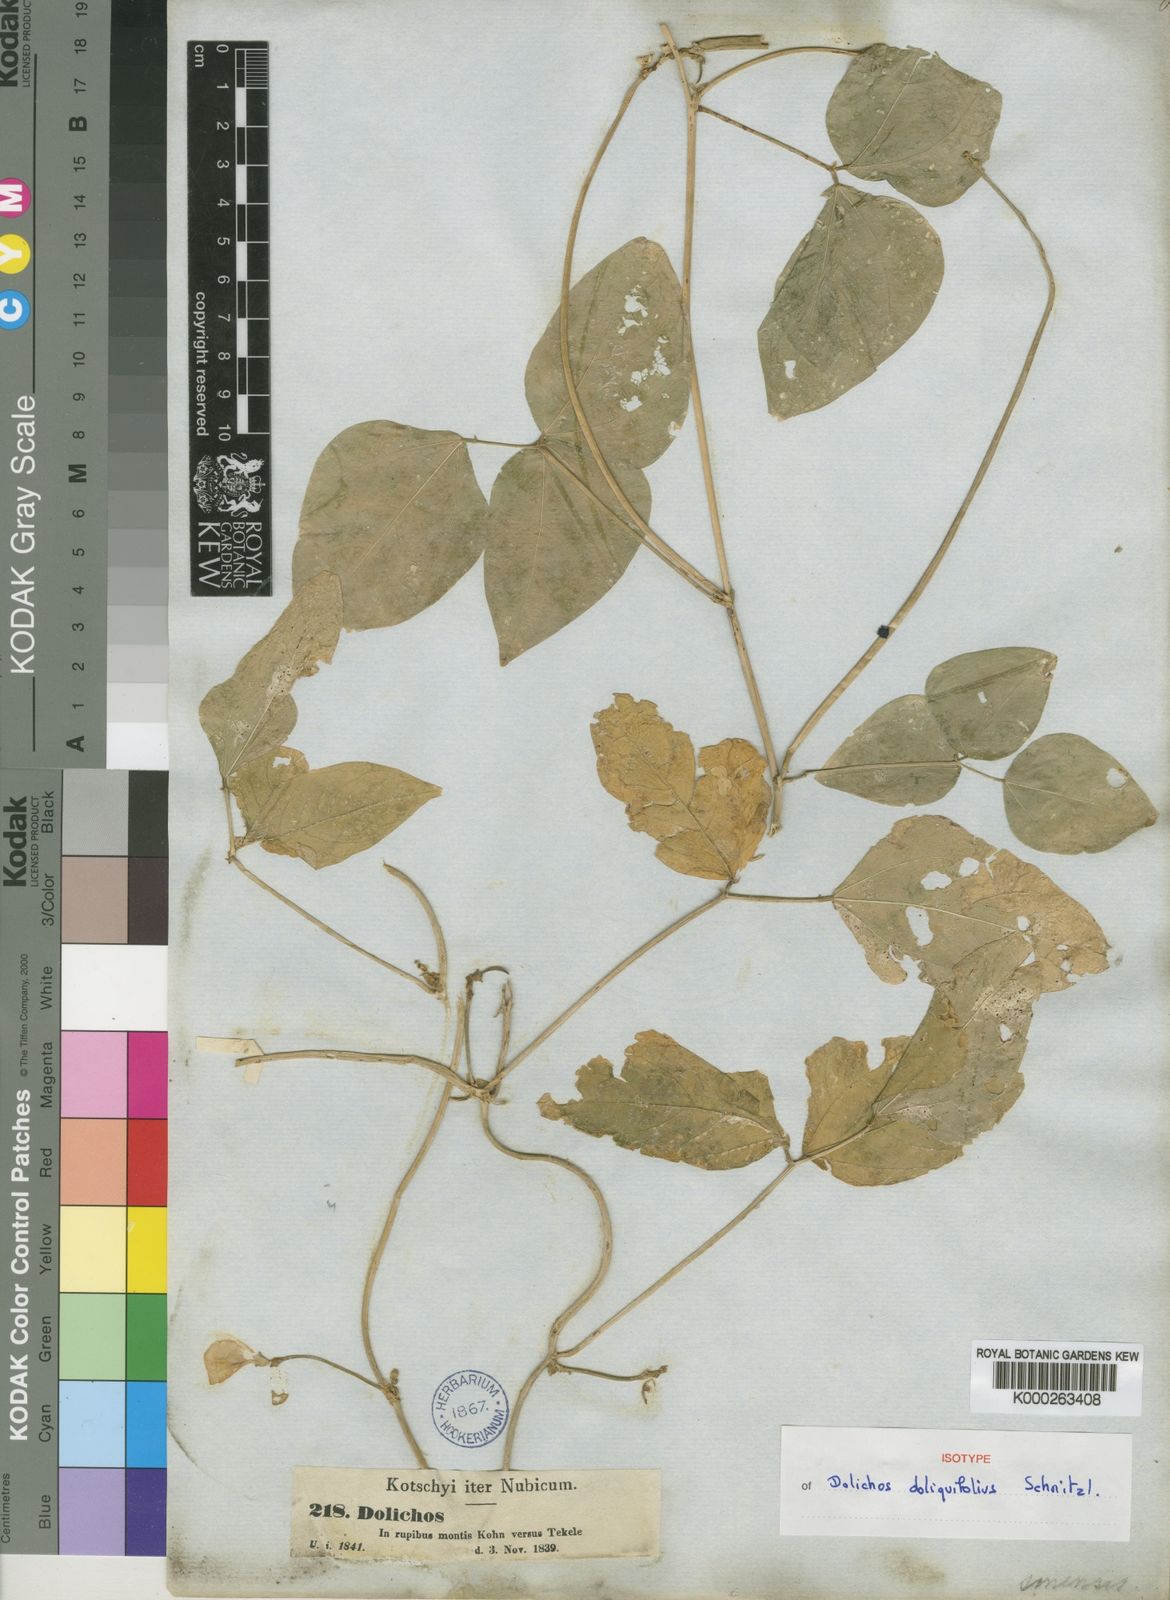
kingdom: Plantae
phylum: Tracheophyta
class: Magnoliopsida
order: Fabales
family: Fabaceae
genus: Vigna
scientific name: Vigna unguiculata
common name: Cowpea
